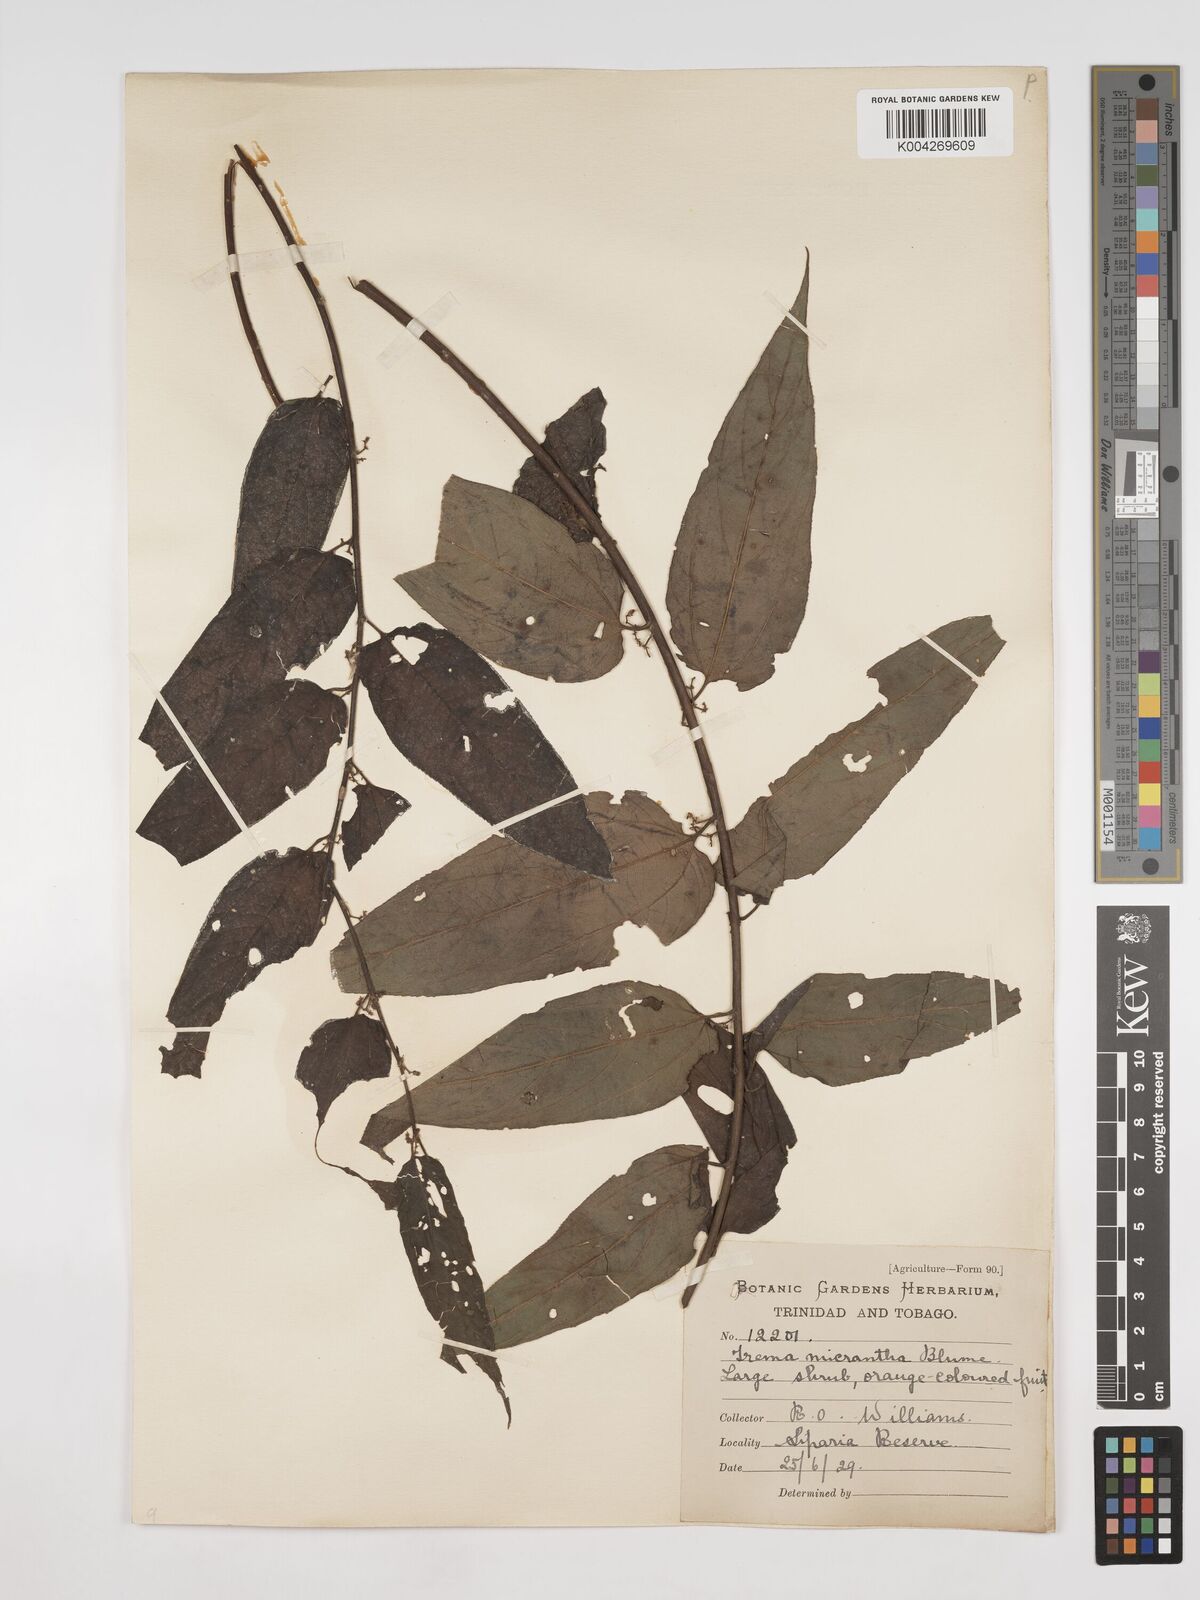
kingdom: Plantae
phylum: Tracheophyta
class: Magnoliopsida
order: Rosales
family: Cannabaceae
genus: Trema
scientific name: Trema micranthum
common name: Jamaican nettletree
